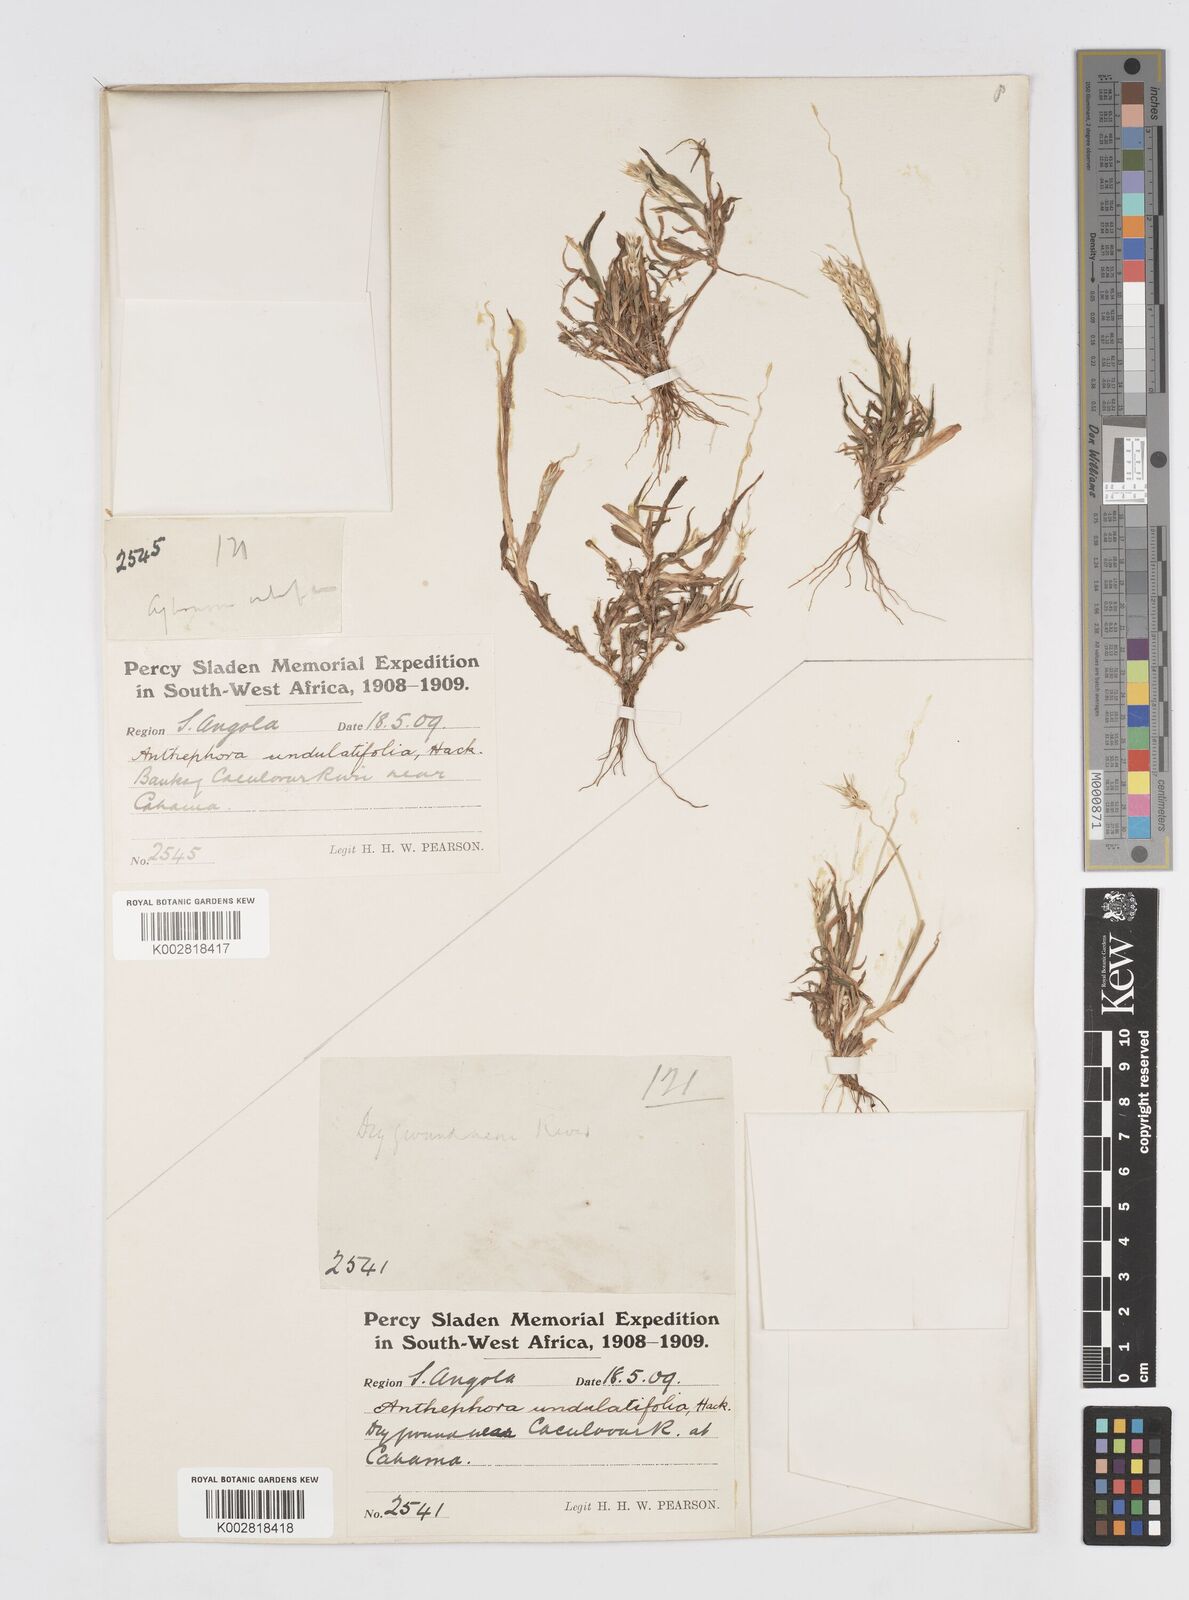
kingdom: Plantae
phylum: Tracheophyta
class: Liliopsida
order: Poales
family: Poaceae
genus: Anthephora
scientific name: Anthephora schinzii
